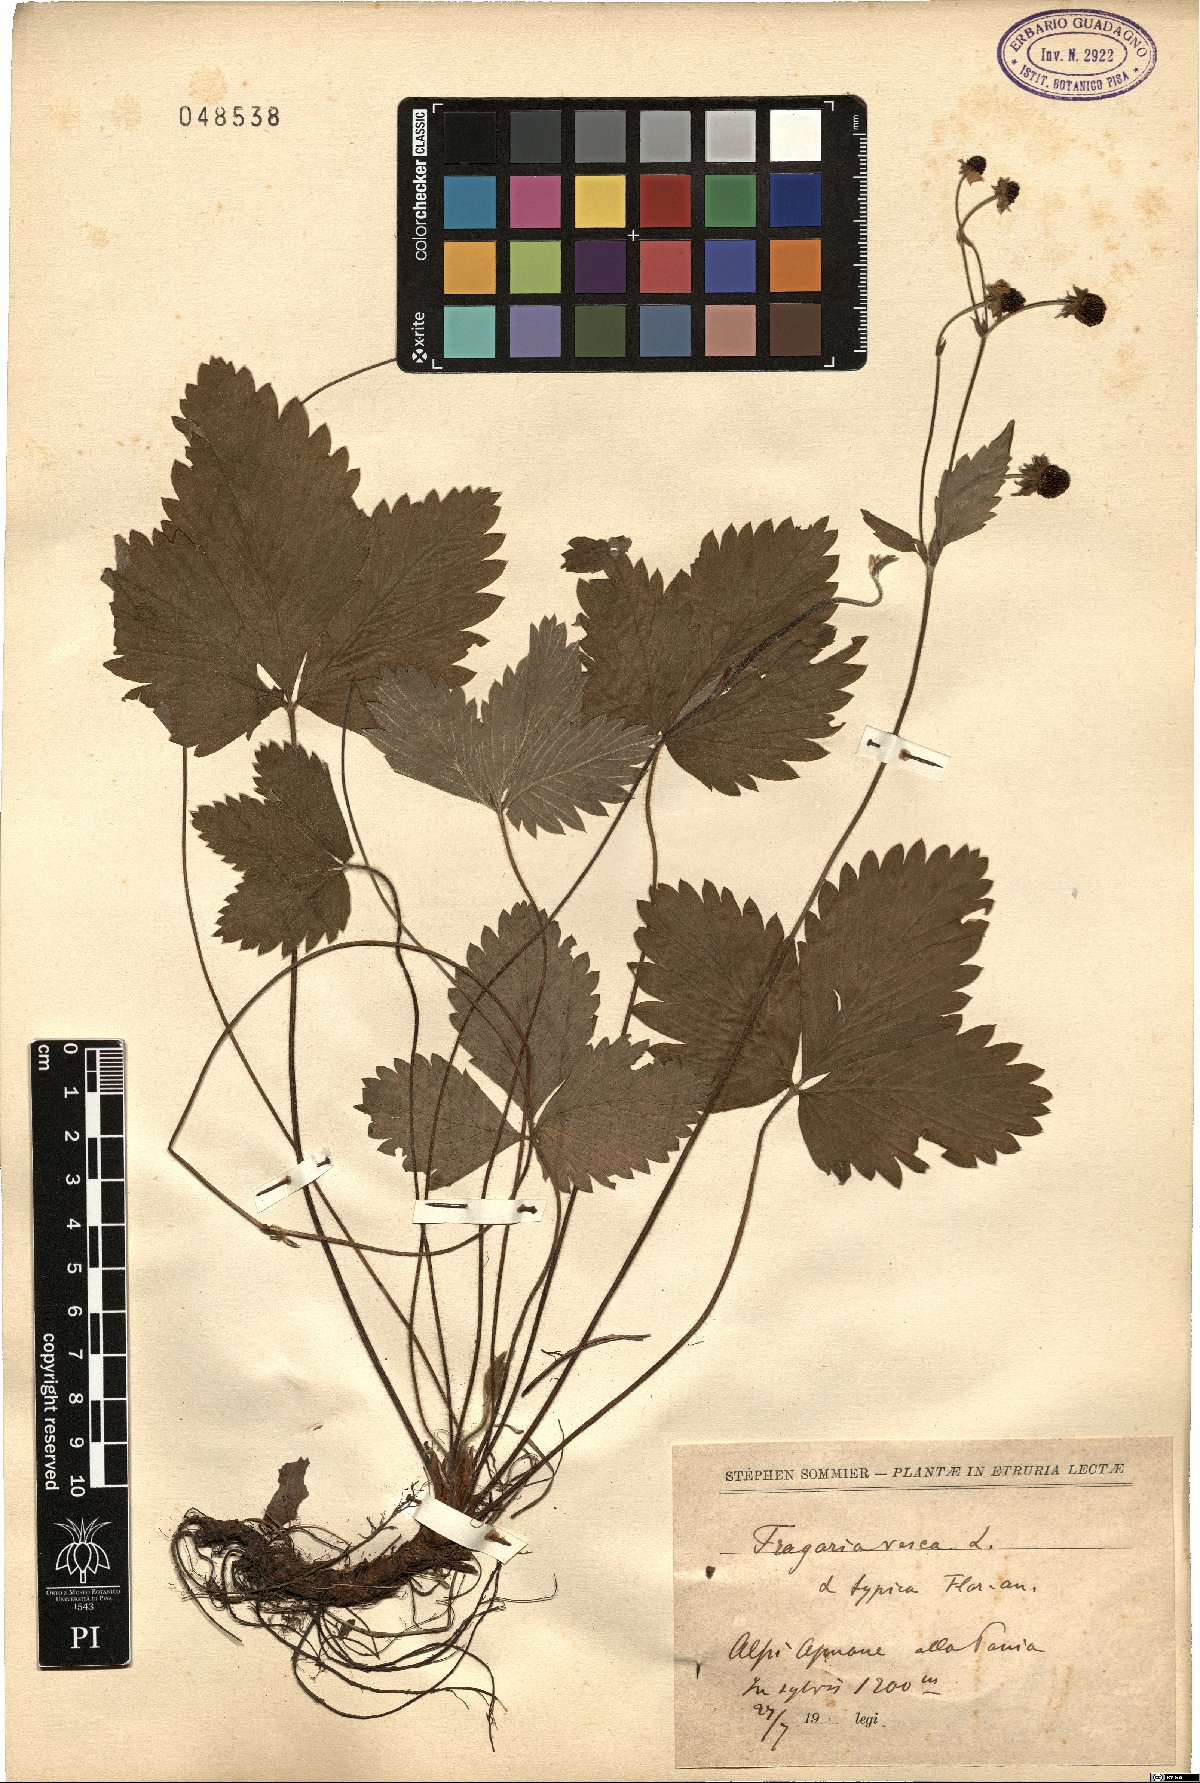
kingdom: Plantae
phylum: Tracheophyta
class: Magnoliopsida
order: Rosales
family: Rosaceae
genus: Fragaria
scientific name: Fragaria vesca
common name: Wild strawberry
